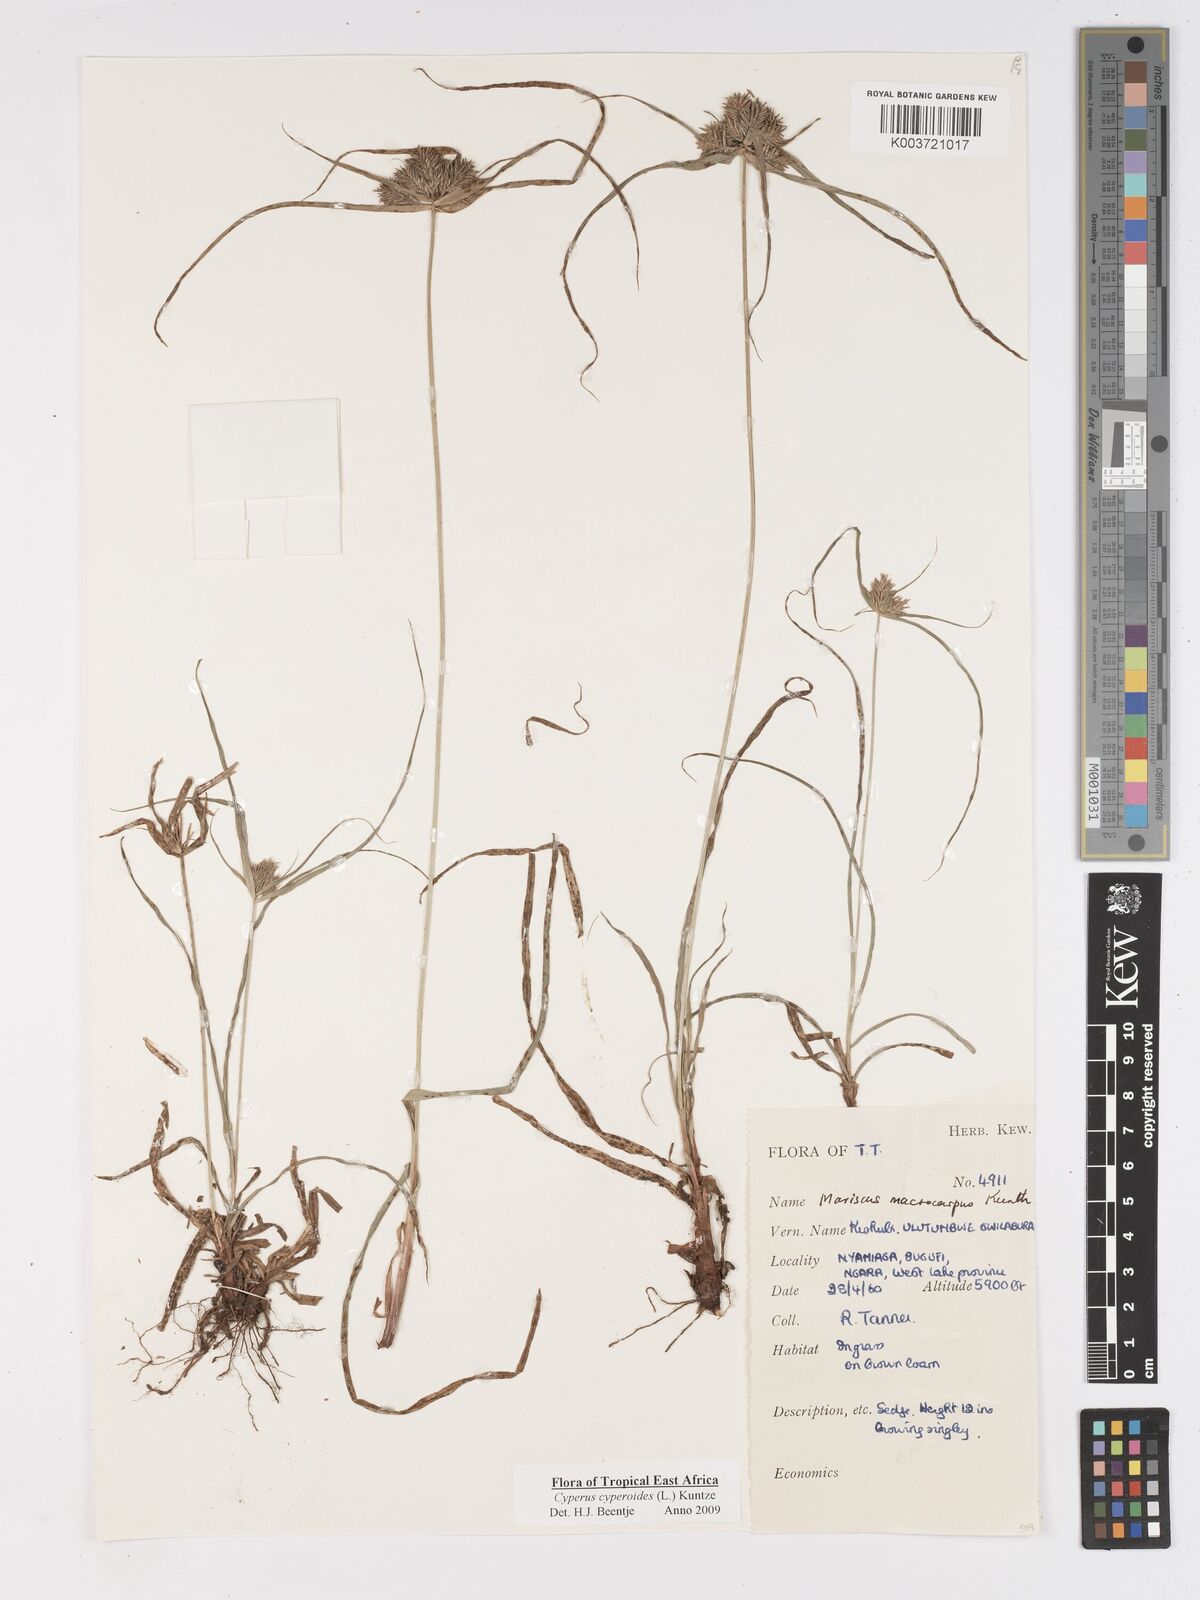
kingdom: Plantae
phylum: Tracheophyta
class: Liliopsida
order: Poales
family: Cyperaceae
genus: Cyperus
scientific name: Cyperus cyperoides
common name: Pacific island flat sedge
